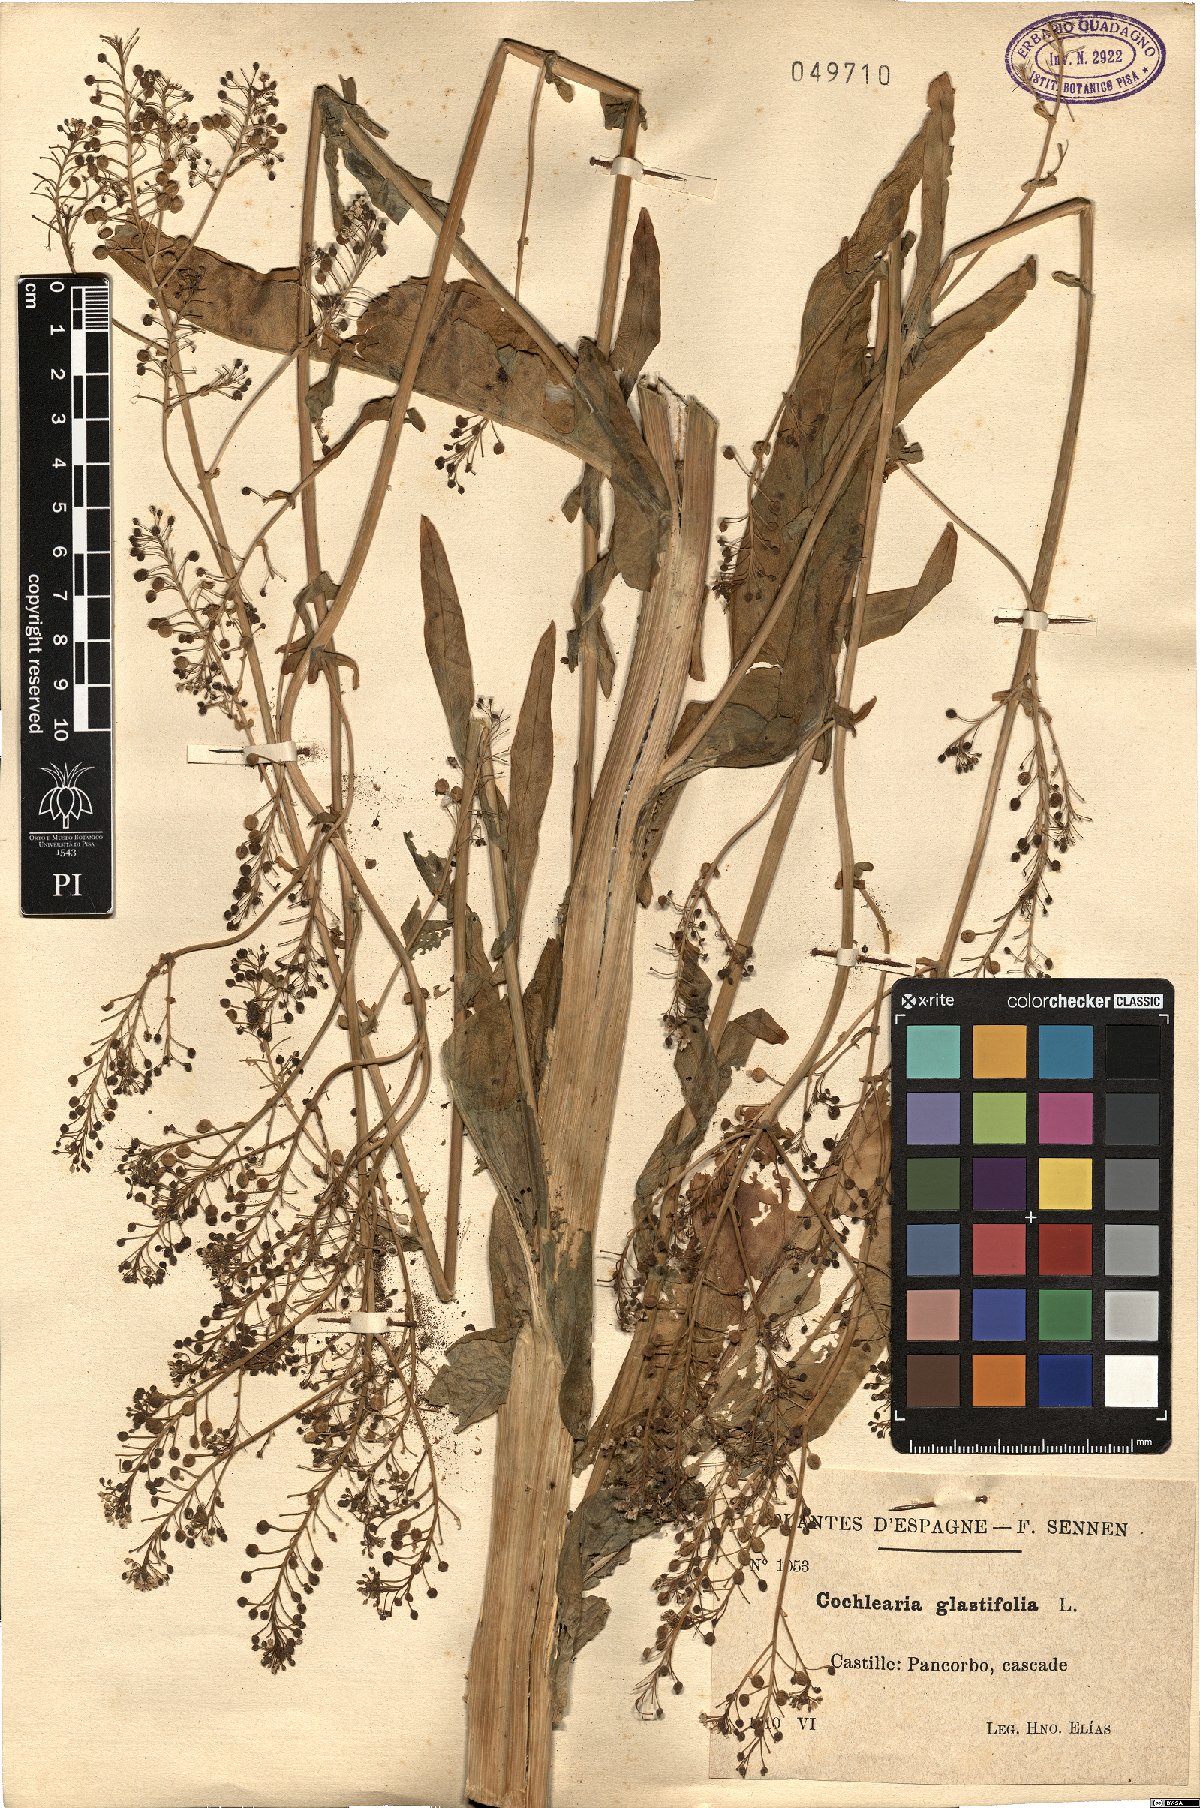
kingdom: Plantae
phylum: Tracheophyta
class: Magnoliopsida
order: Brassicales
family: Brassicaceae
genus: Ionopsidium
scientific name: Ionopsidium glastifolium
